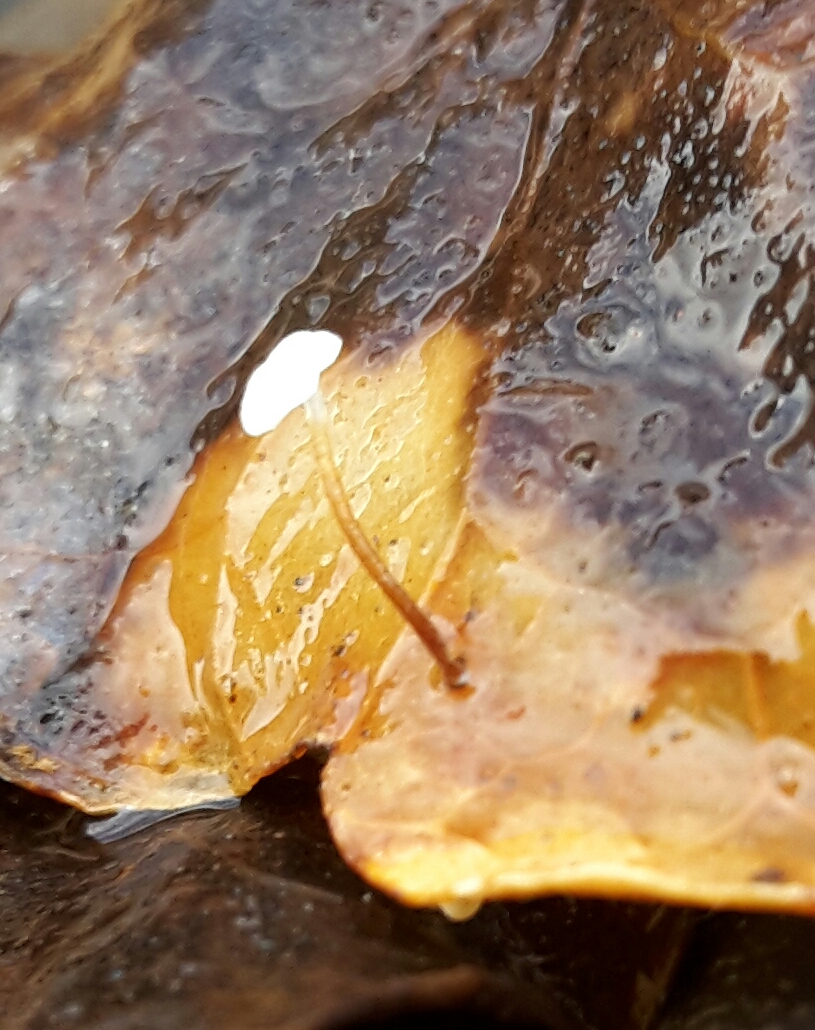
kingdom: Fungi
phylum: Basidiomycota
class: Agaricomycetes
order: Agaricales
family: Marasmiaceae
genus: Marasmius
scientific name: Marasmius epiphylloides
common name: vedbend-bruskhat
